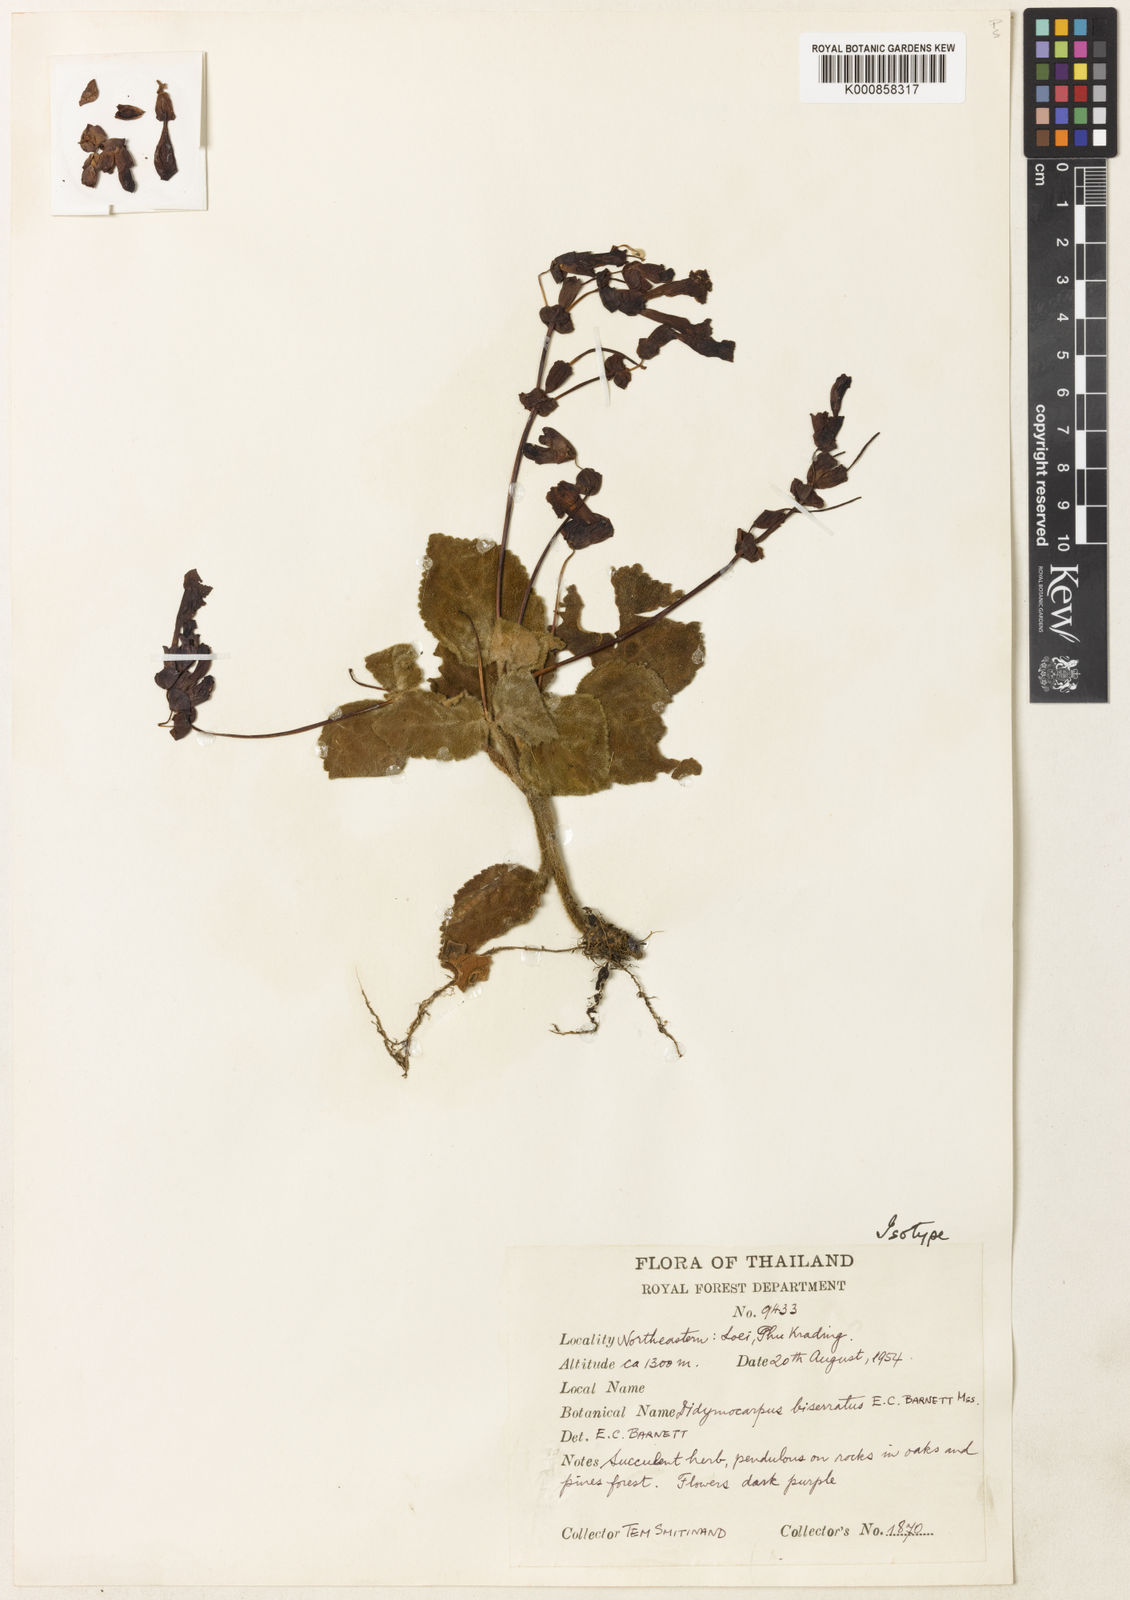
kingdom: Plantae
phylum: Tracheophyta
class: Magnoliopsida
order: Lamiales
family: Gesneriaceae
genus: Didymocarpus
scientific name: Didymocarpus biserratus
